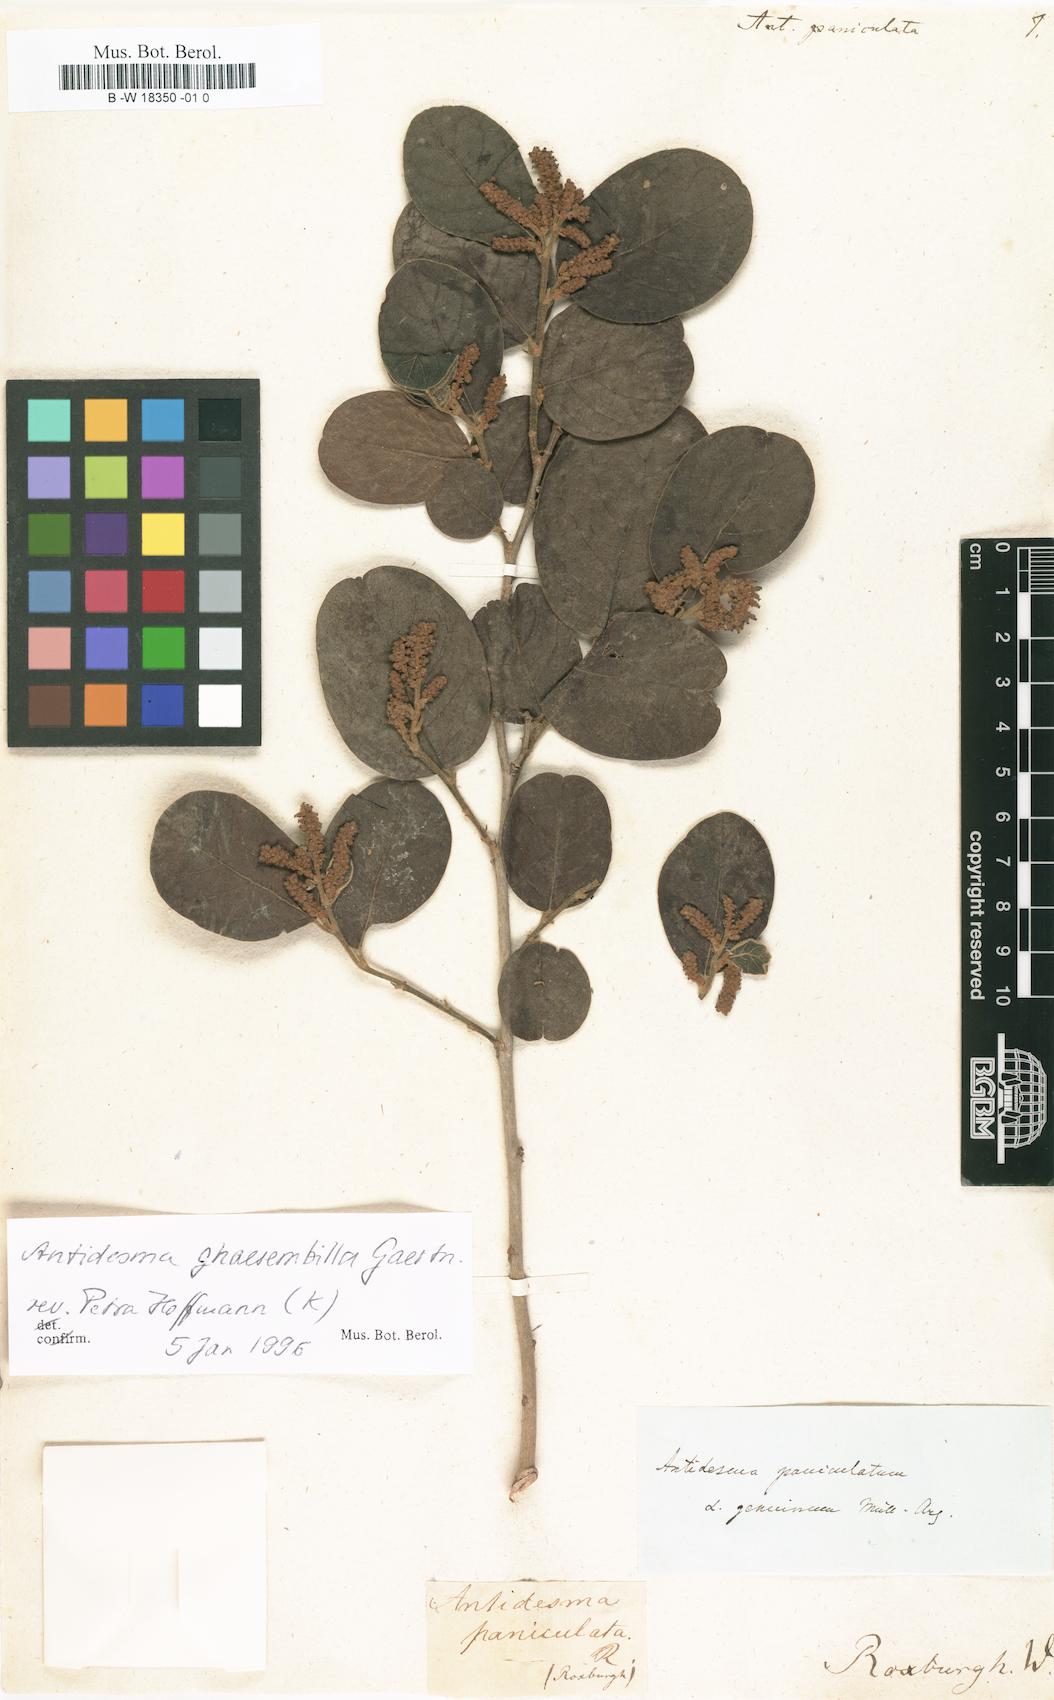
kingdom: Plantae
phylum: Tracheophyta
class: Magnoliopsida
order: Malpighiales
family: Phyllanthaceae
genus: Antidesma
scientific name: Antidesma paniculatum
